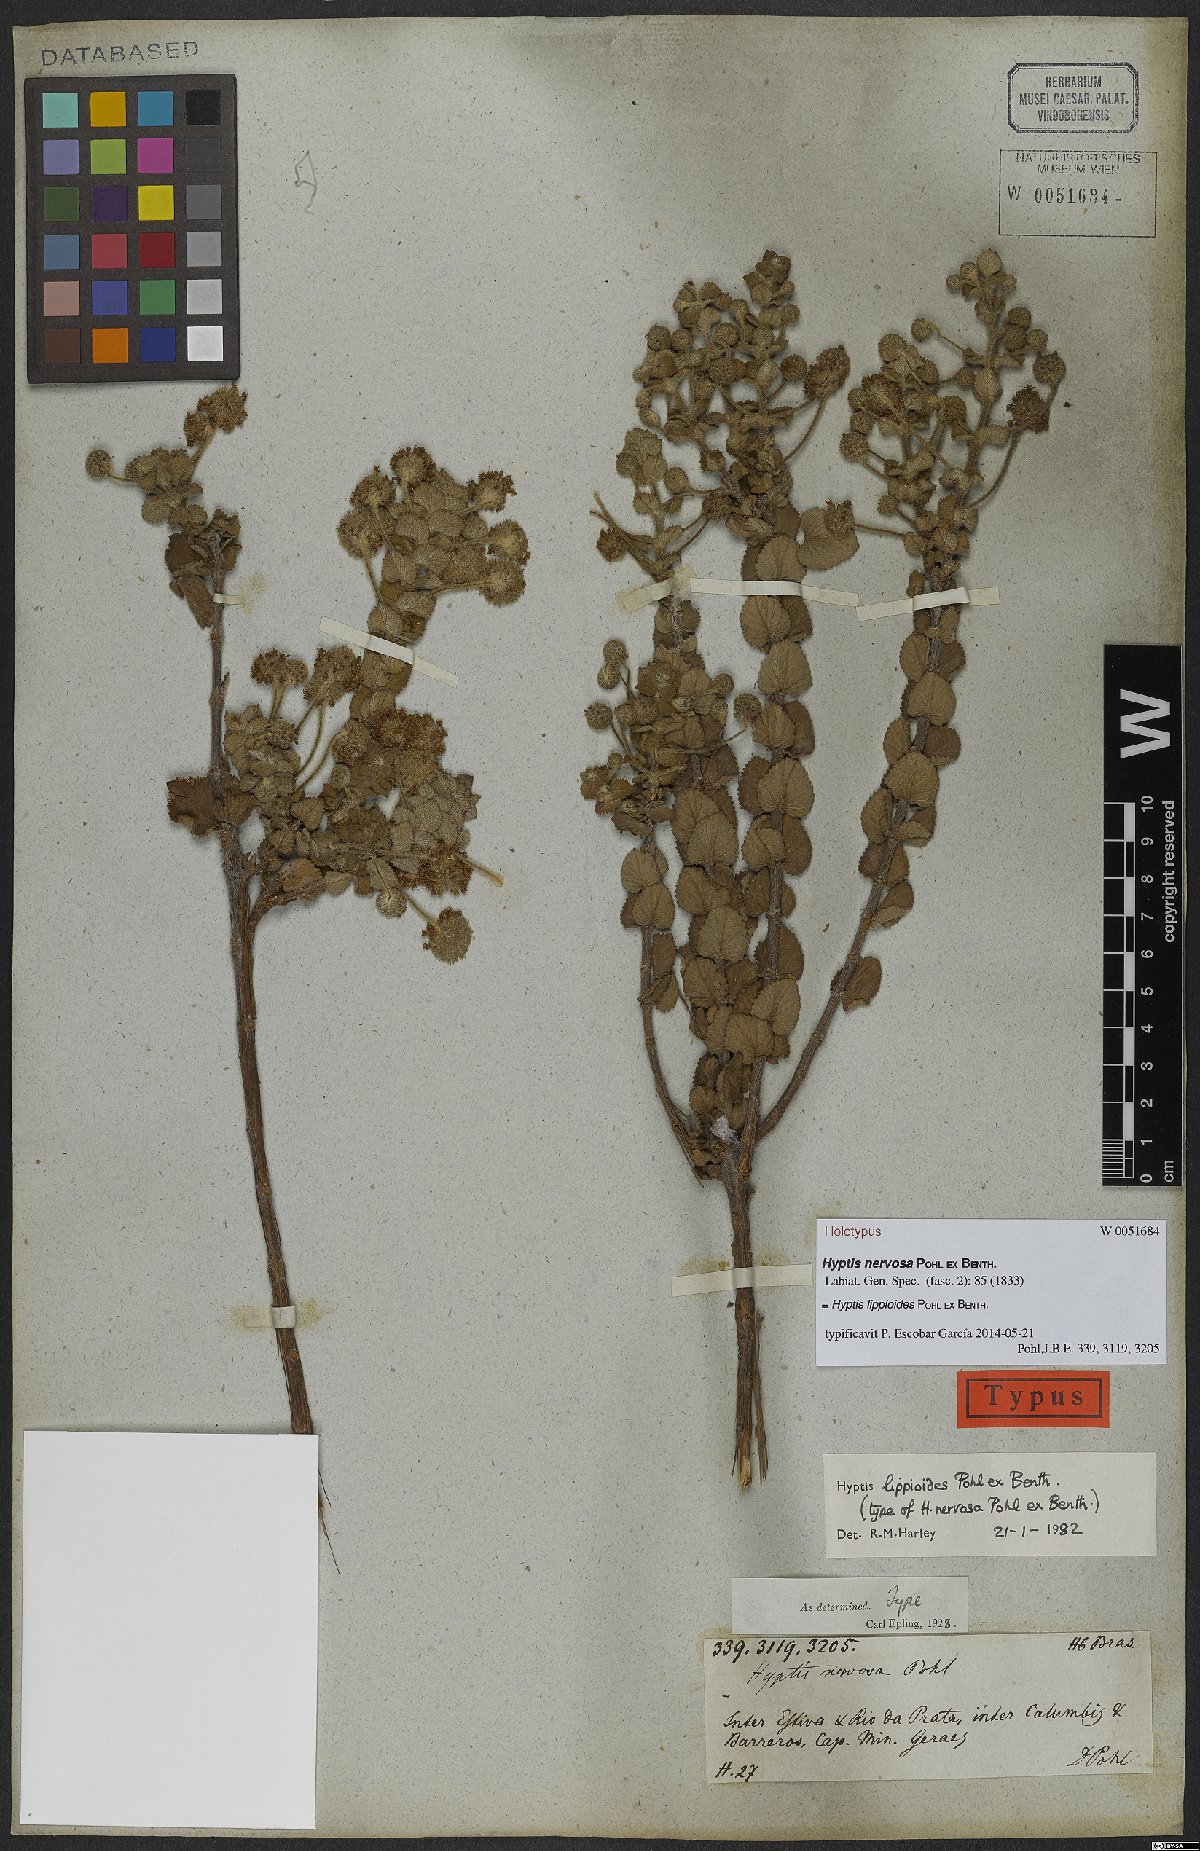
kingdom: Plantae
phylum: Tracheophyta
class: Magnoliopsida
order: Lamiales
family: Lamiaceae
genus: Cyanocephalus
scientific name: Cyanocephalus lippioides
